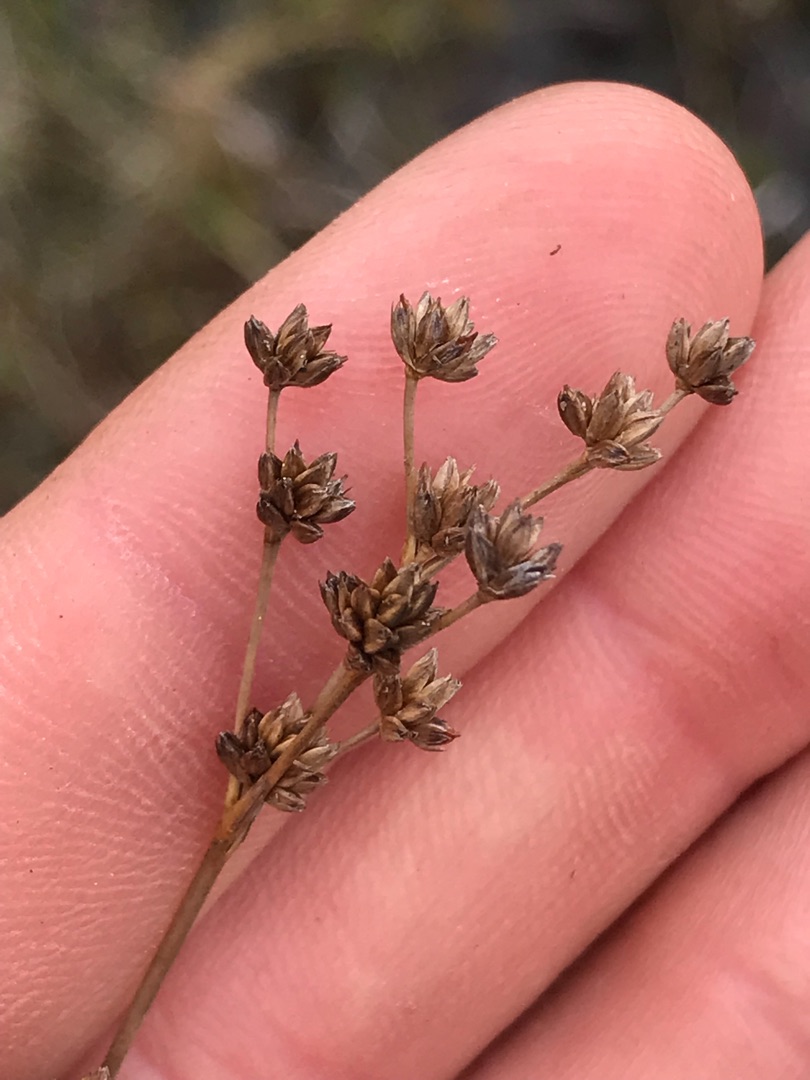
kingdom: Plantae
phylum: Tracheophyta
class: Liliopsida
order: Poales
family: Juncaceae
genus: Juncus
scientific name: Juncus anceps
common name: Sand-siv
